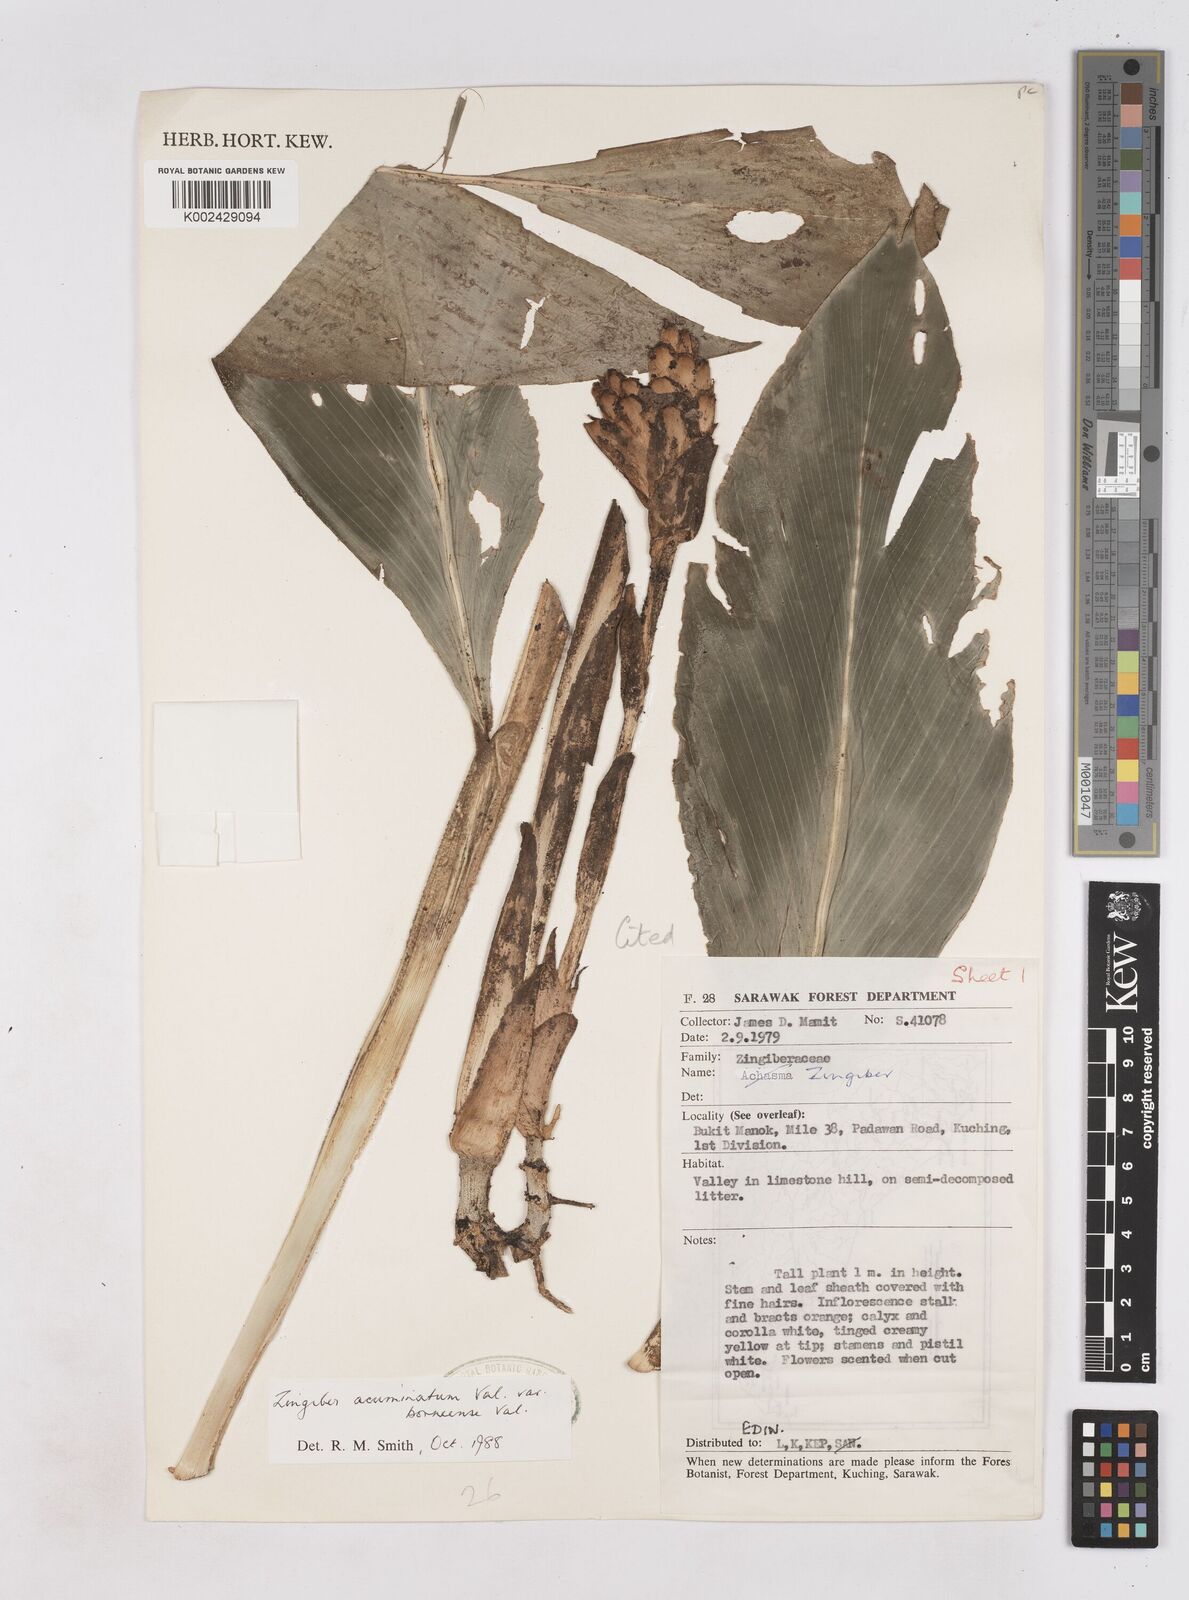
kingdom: Plantae
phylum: Tracheophyta
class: Liliopsida
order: Zingiberales
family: Zingiberaceae
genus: Zingiber
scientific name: Zingiber acuminatum
